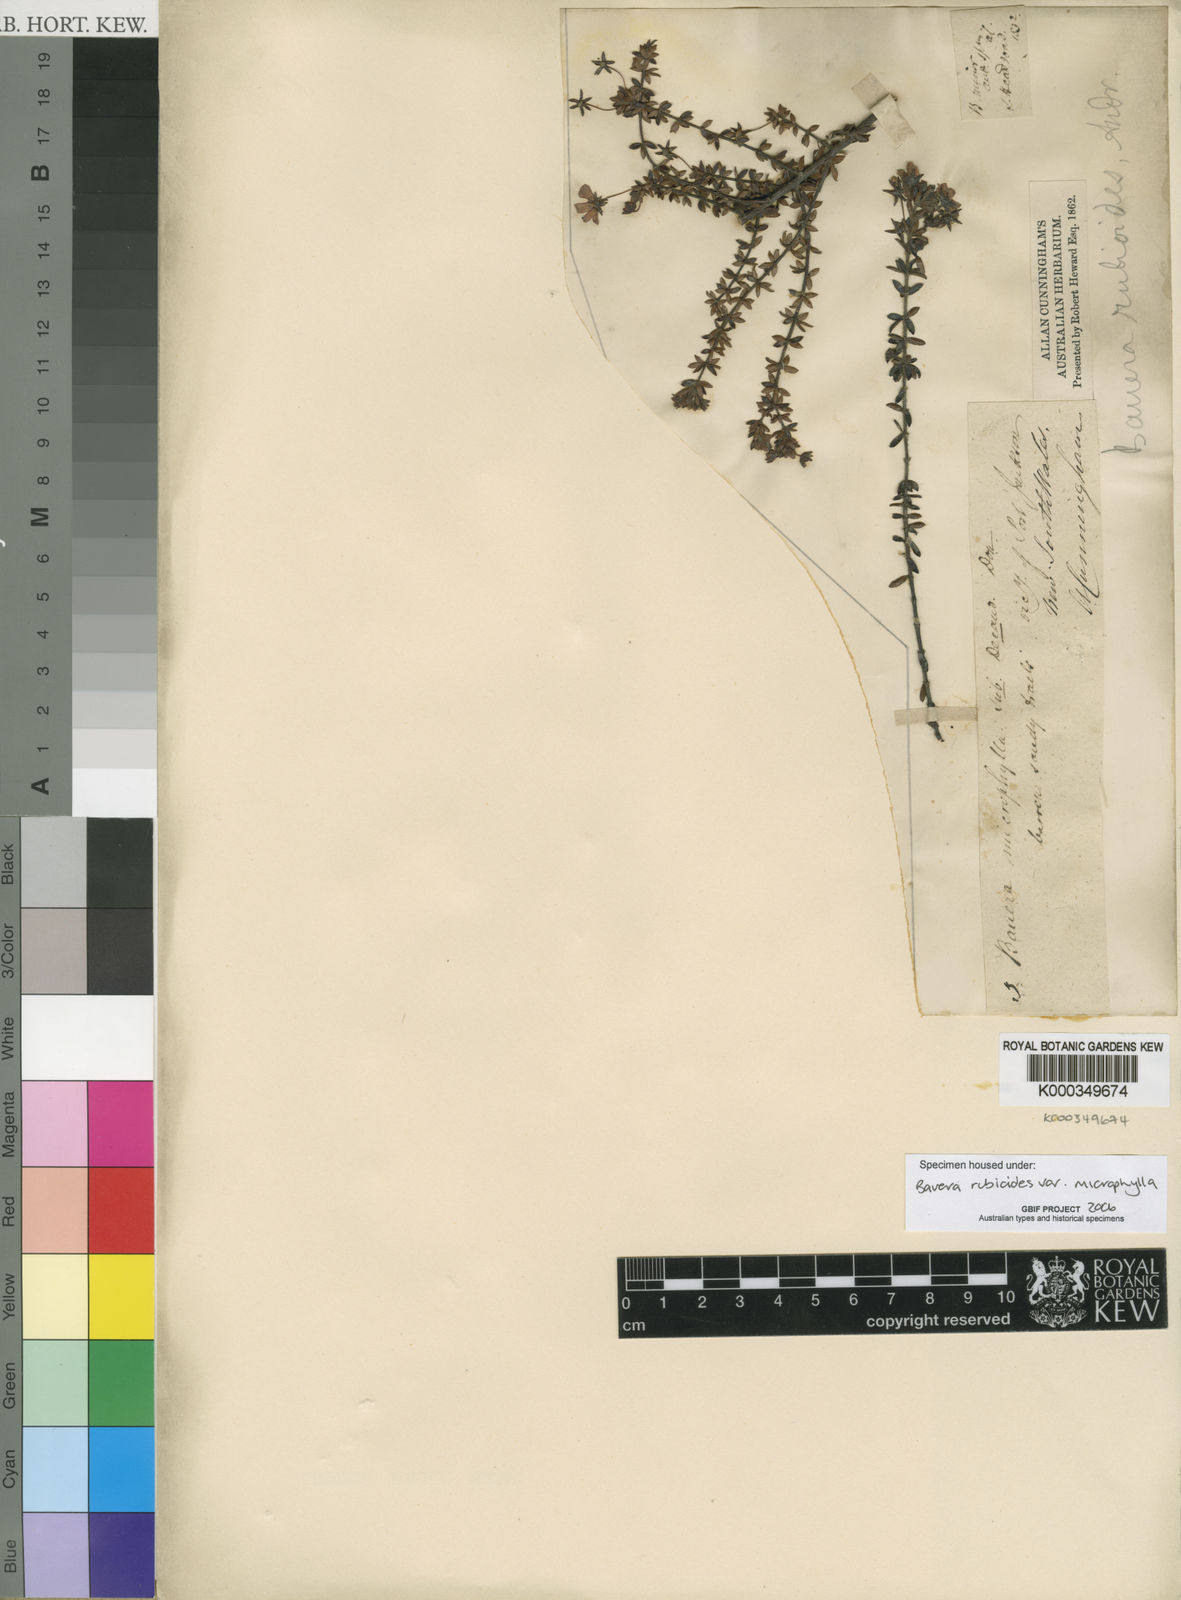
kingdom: Plantae
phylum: Tracheophyta
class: Magnoliopsida
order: Oxalidales
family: Cunoniaceae
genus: Bauera
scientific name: Bauera rubioides
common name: River-rose
